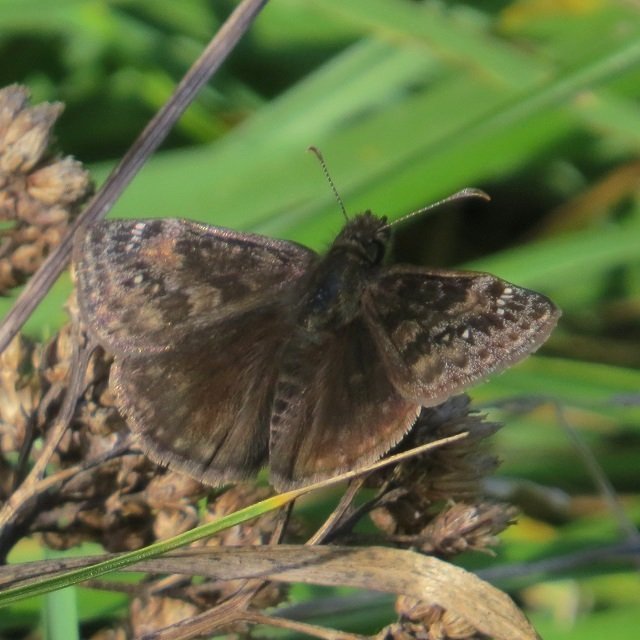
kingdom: Animalia
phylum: Arthropoda
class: Insecta
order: Lepidoptera
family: Hesperiidae
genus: Gesta
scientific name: Gesta
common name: Wild Indigo Duskywing
